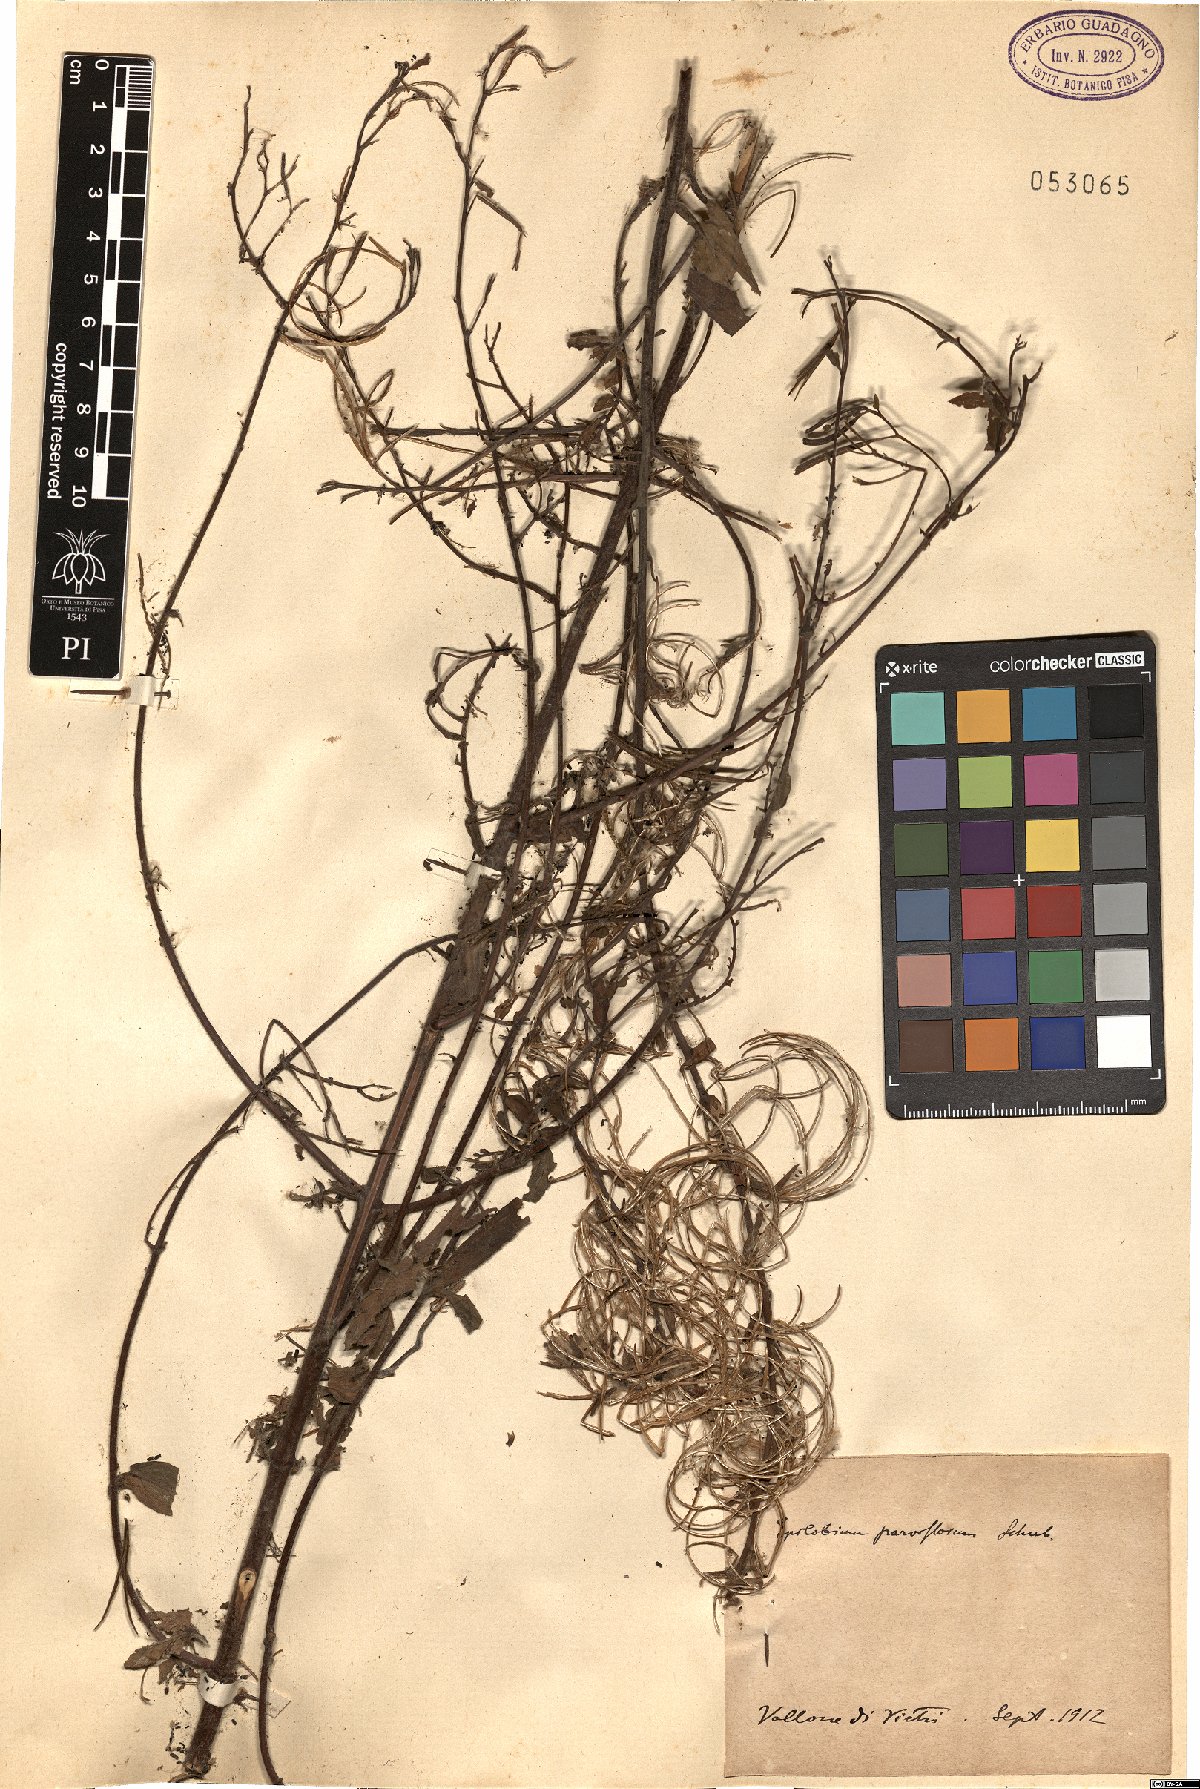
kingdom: Plantae
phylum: Tracheophyta
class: Magnoliopsida
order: Myrtales
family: Onagraceae
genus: Epilobium
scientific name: Epilobium parviflorum
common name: Hoary willowherb
